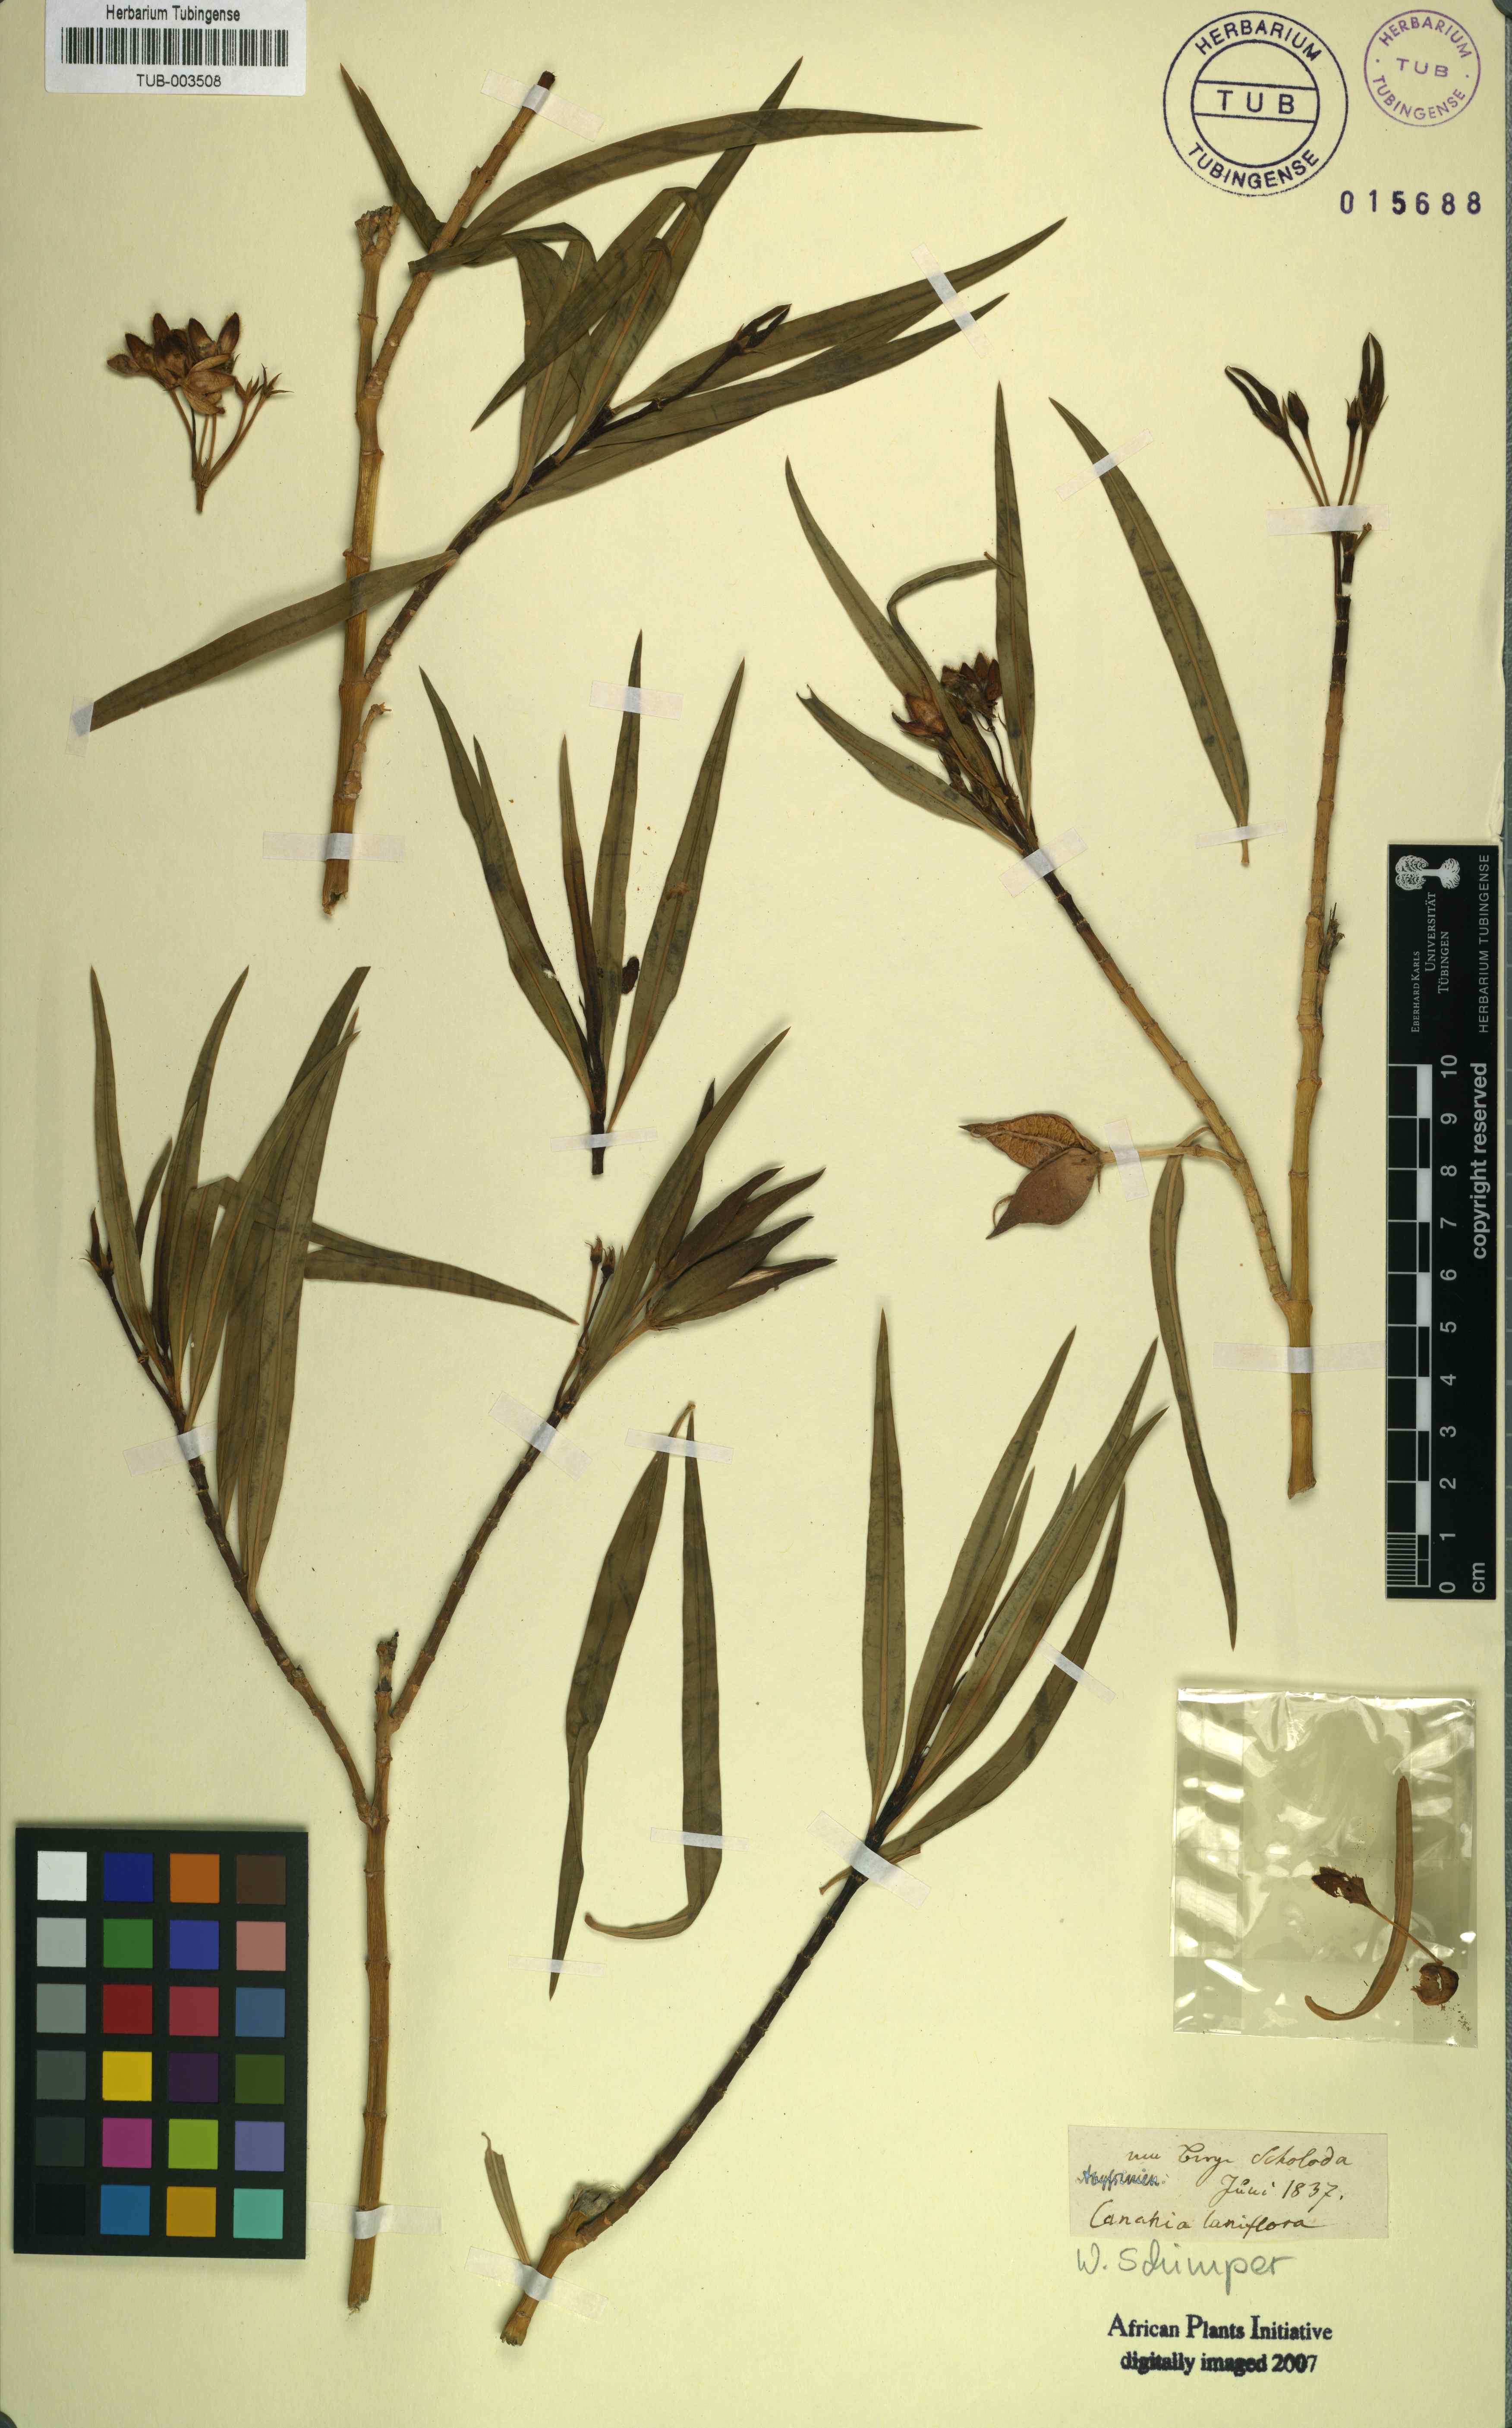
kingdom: Plantae
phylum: Tracheophyta
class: Magnoliopsida
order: Gentianales
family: Apocynaceae
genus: Kanahia
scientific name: Kanahia laniflora
